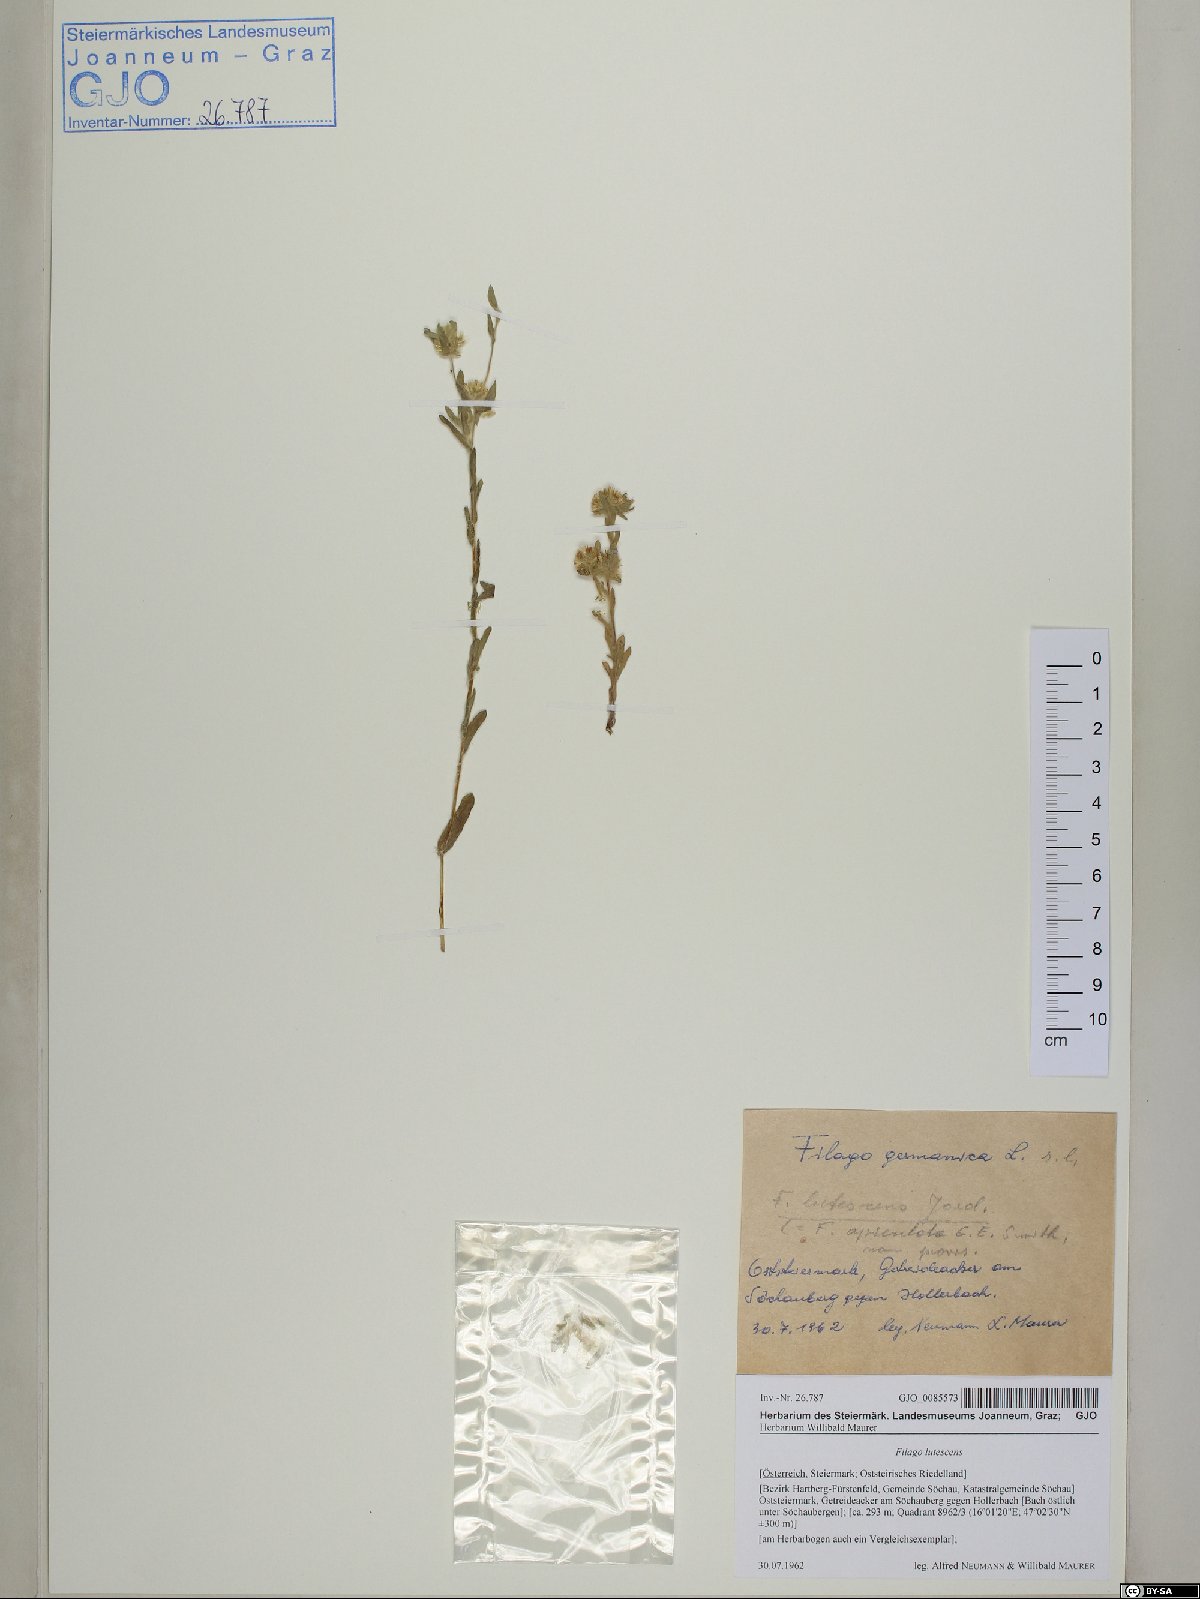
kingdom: Plantae
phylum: Tracheophyta
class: Magnoliopsida
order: Asterales
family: Asteraceae
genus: Filago
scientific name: Filago lutescens
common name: Red-tipped cudweed
